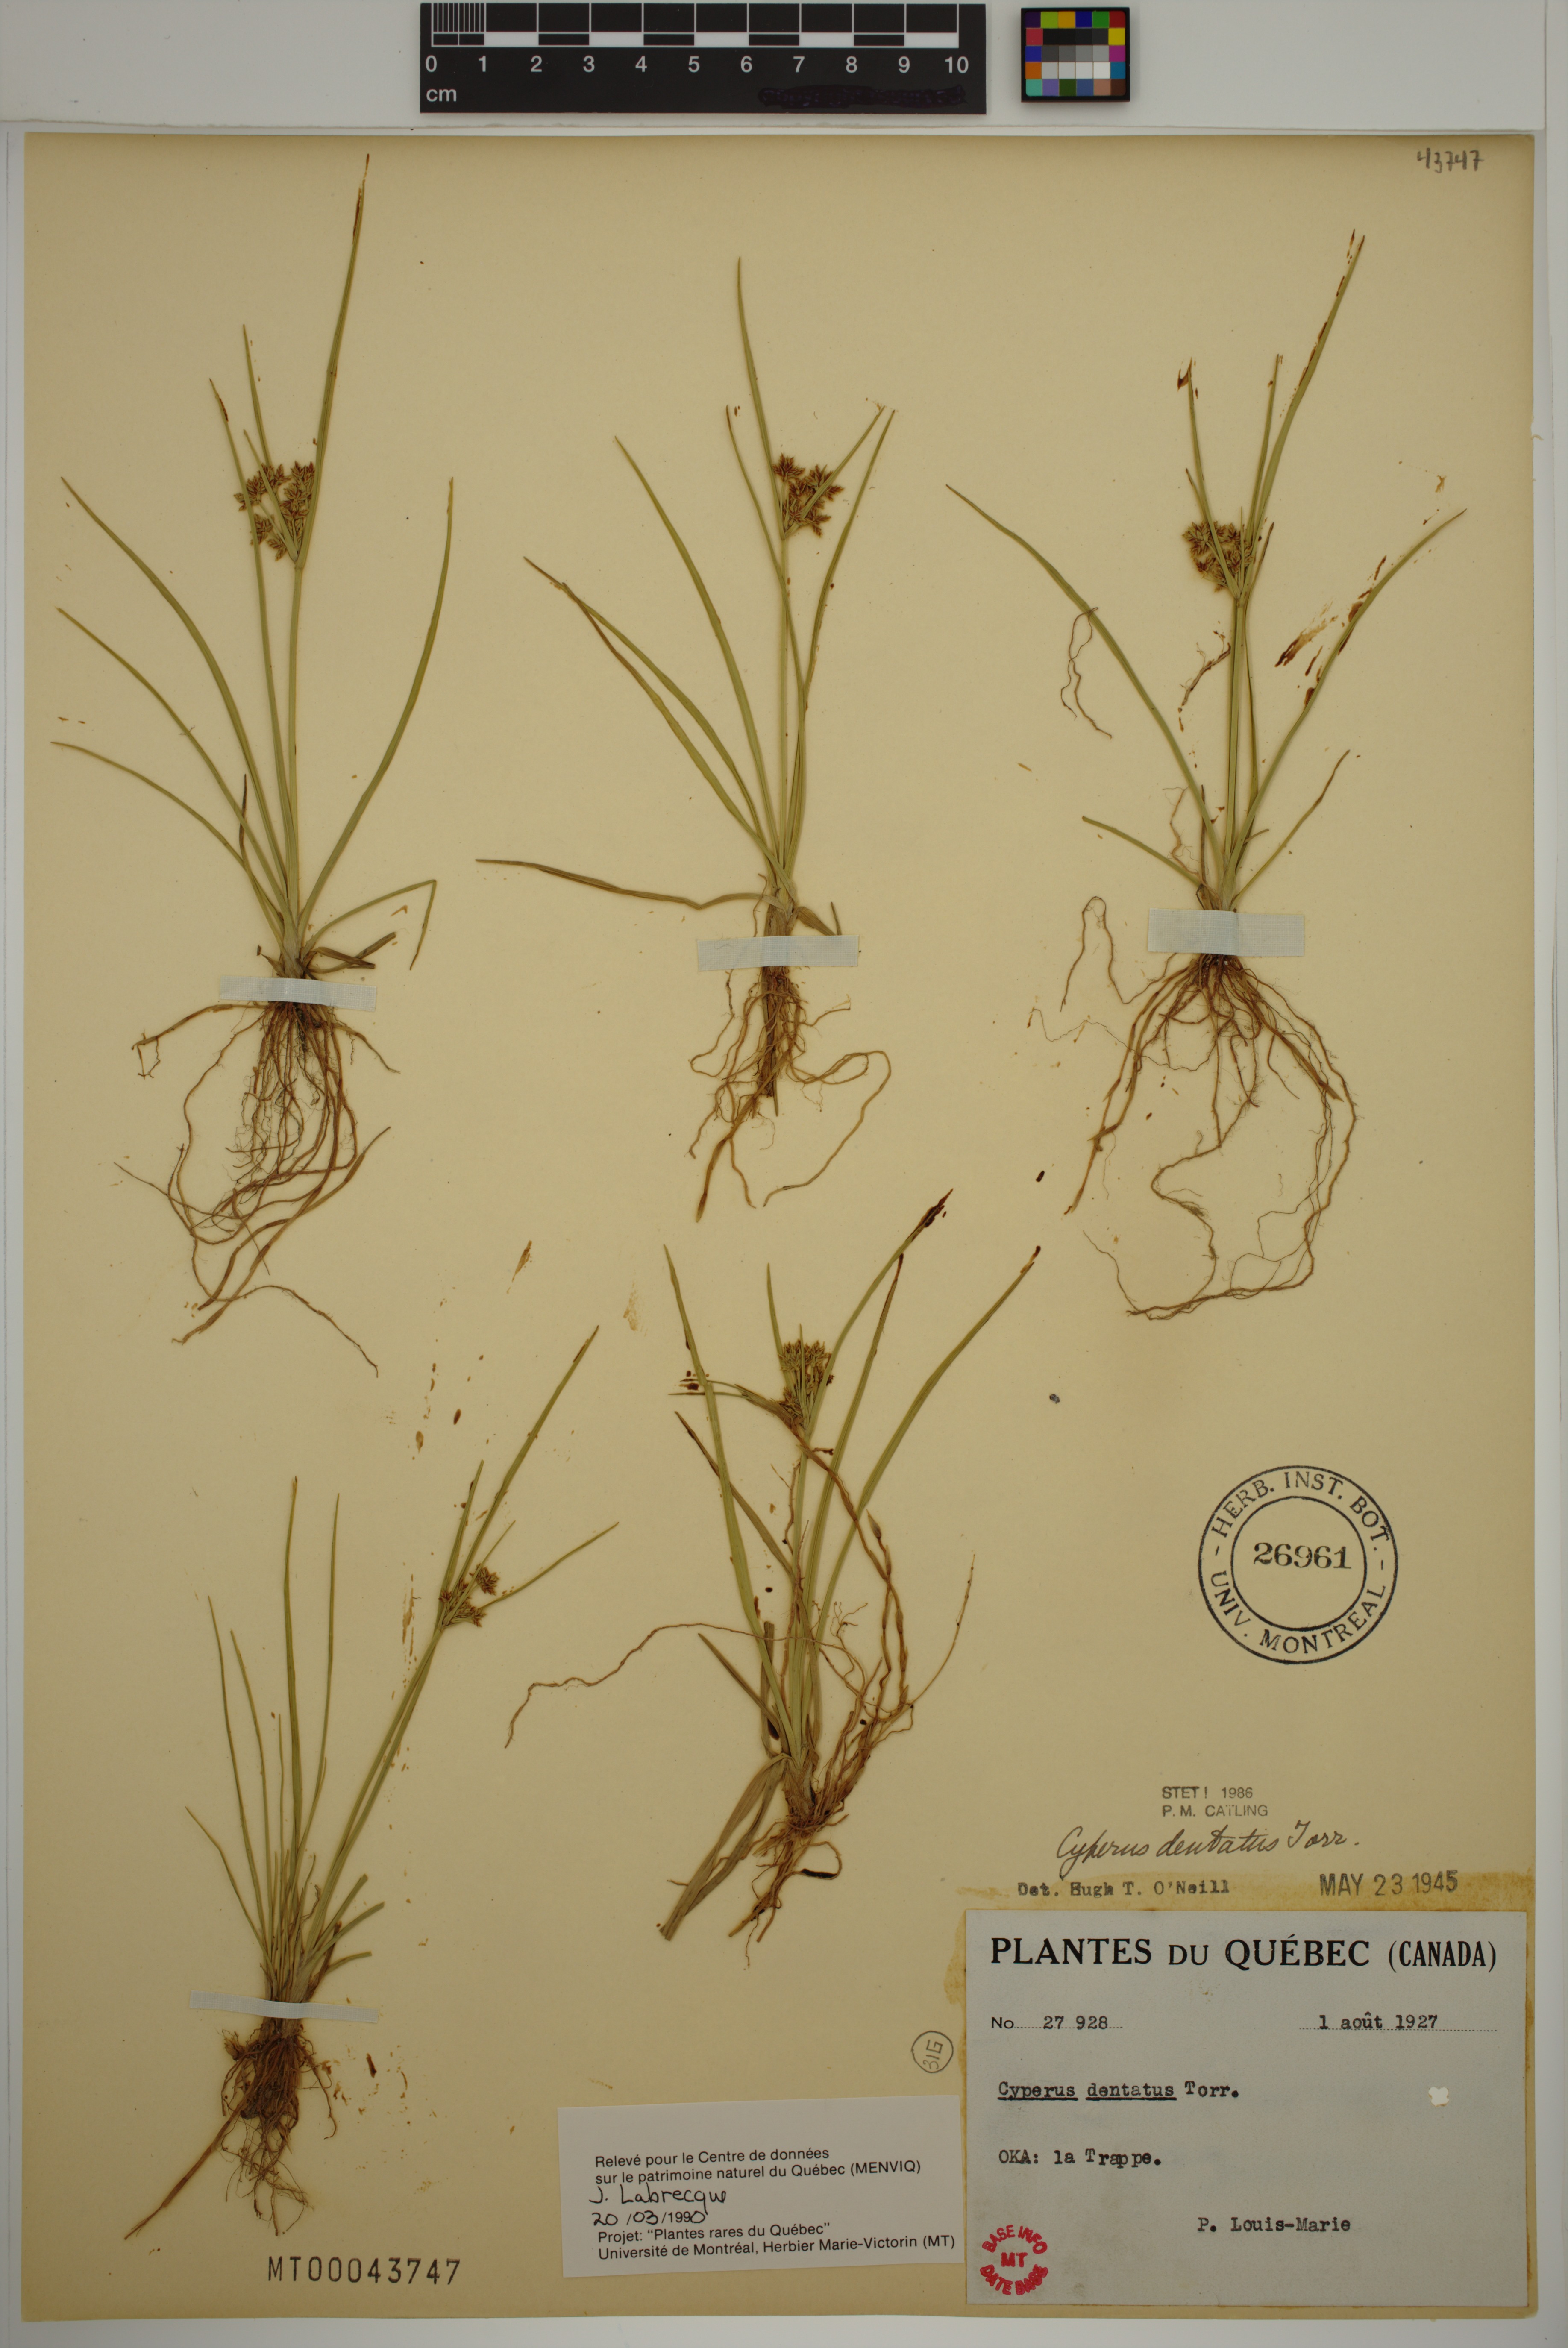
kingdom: Plantae
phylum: Tracheophyta
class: Liliopsida
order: Poales
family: Cyperaceae
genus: Cyperus
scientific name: Cyperus dentatus
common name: Dentate umbrella sedge
